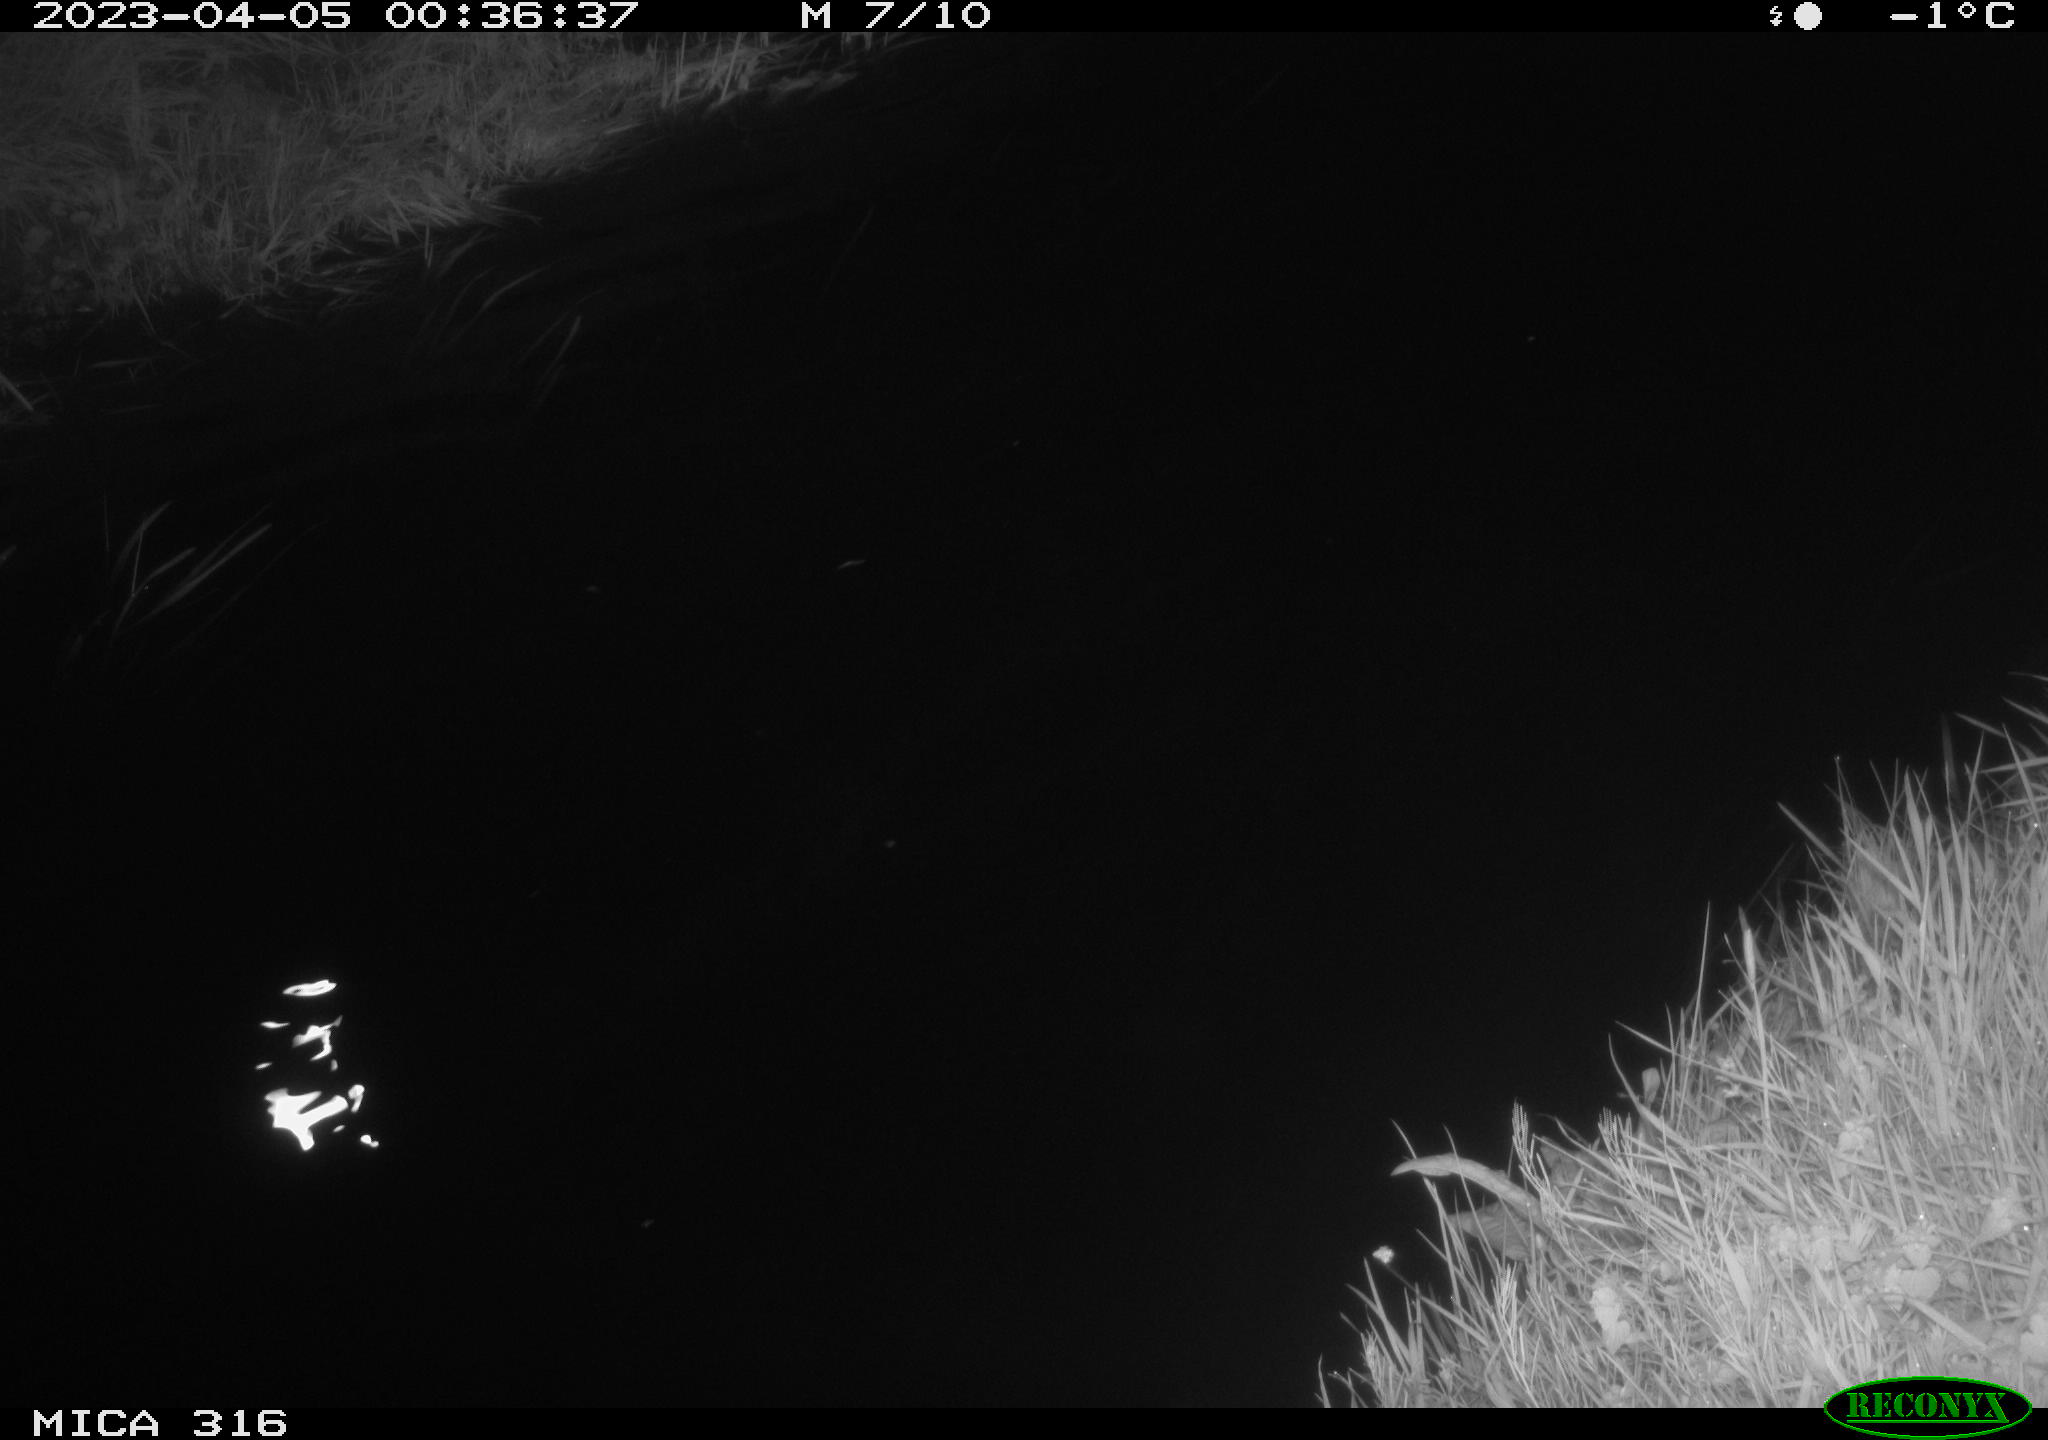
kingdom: Animalia
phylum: Chordata
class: Aves
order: Anseriformes
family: Anatidae
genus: Anas
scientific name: Anas
